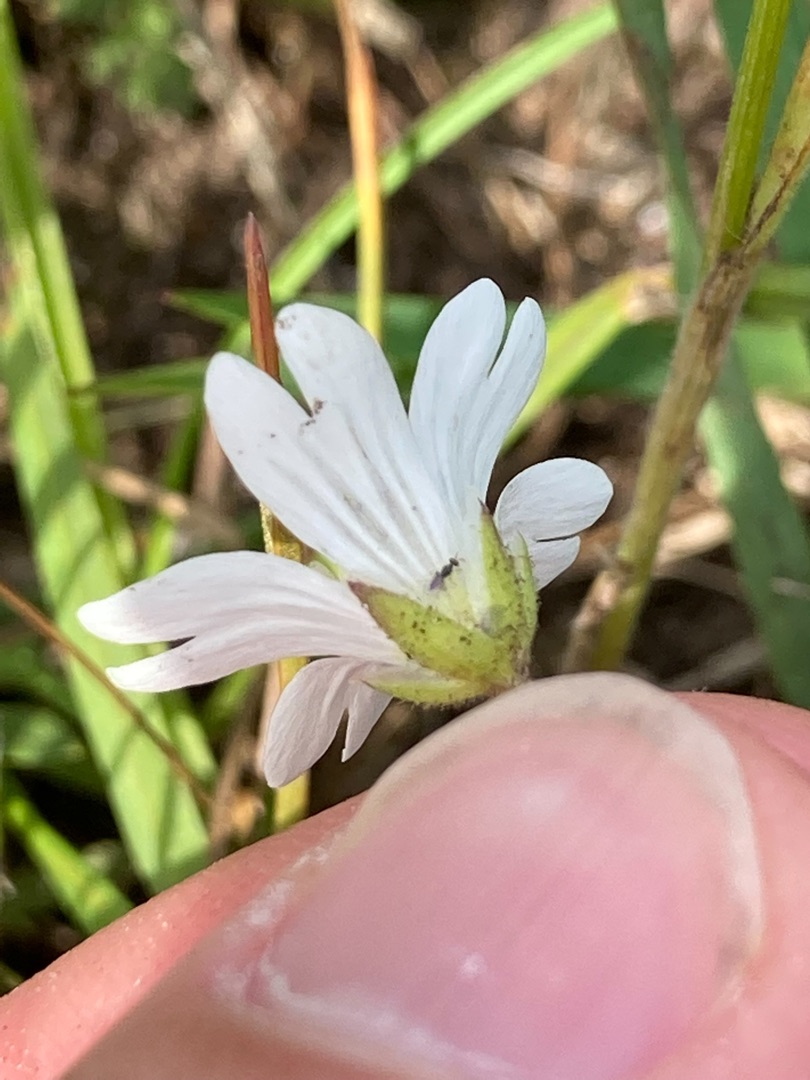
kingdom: Plantae
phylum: Tracheophyta
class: Magnoliopsida
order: Caryophyllales
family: Caryophyllaceae
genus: Cerastium
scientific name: Cerastium arvense
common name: Storblomstret hønsetarm
